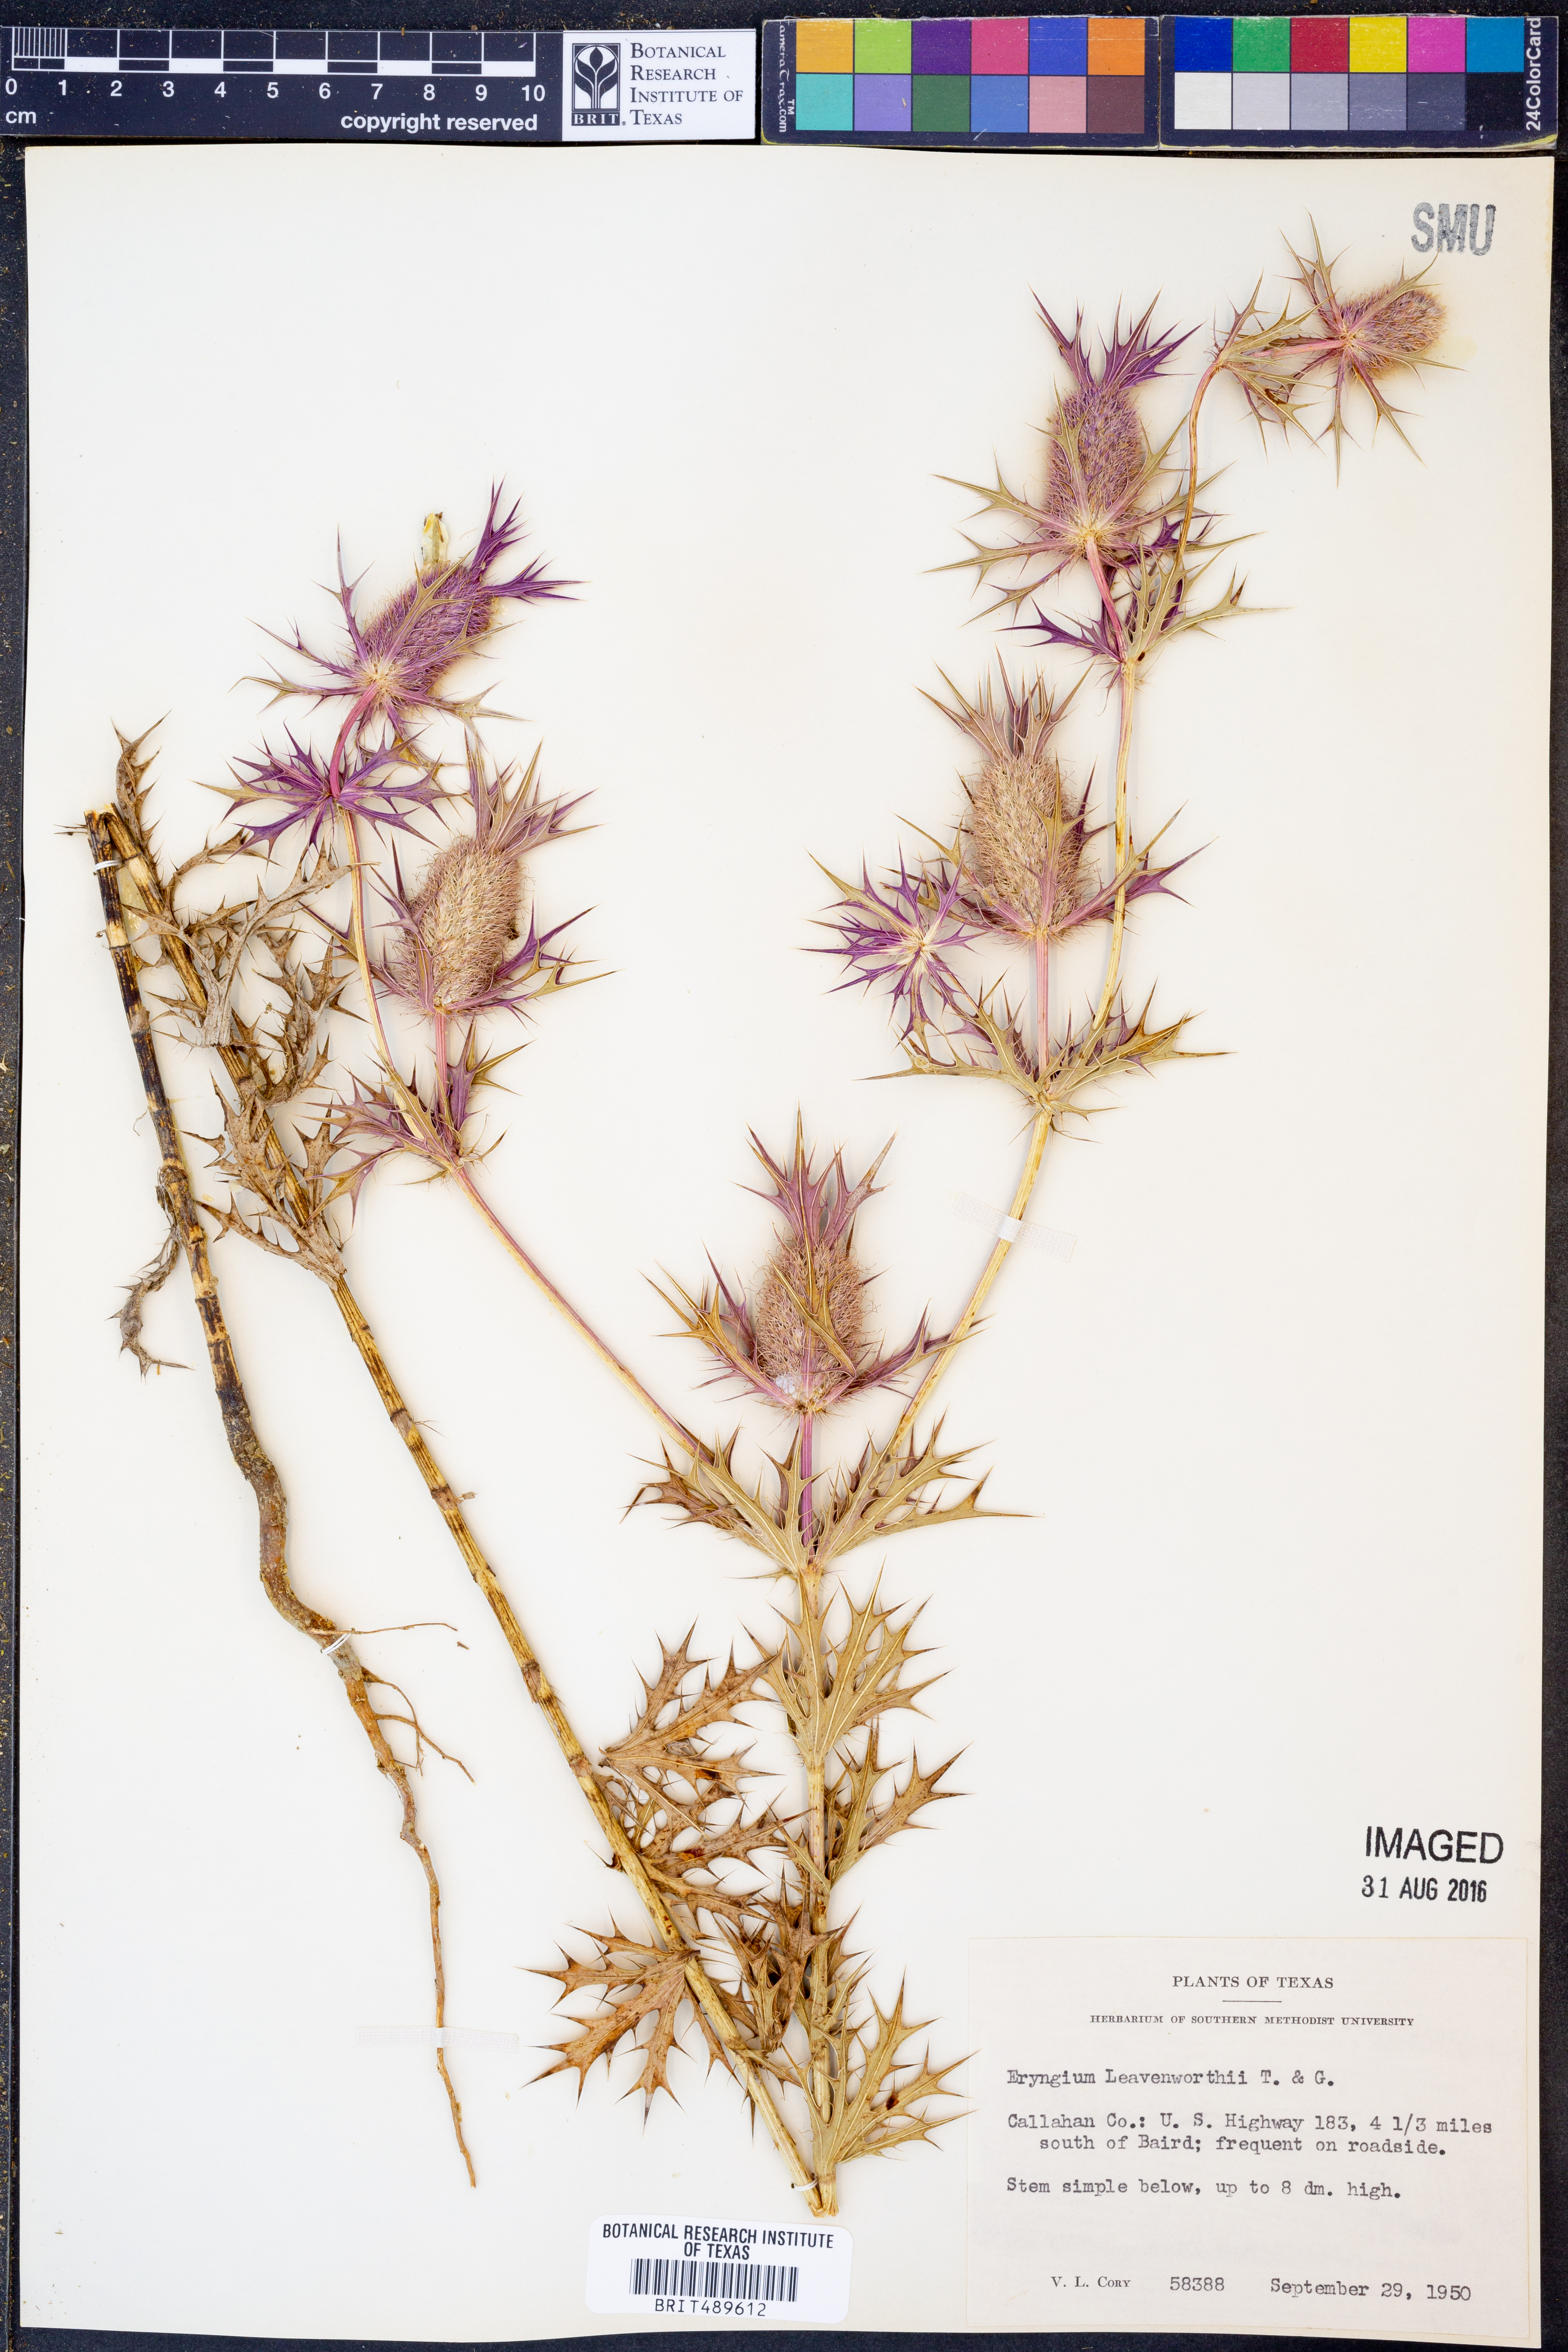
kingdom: Plantae
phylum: Tracheophyta
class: Magnoliopsida
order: Apiales
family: Apiaceae
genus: Eryngium
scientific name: Eryngium leavenworthii
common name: Leavenworth's eryngo
